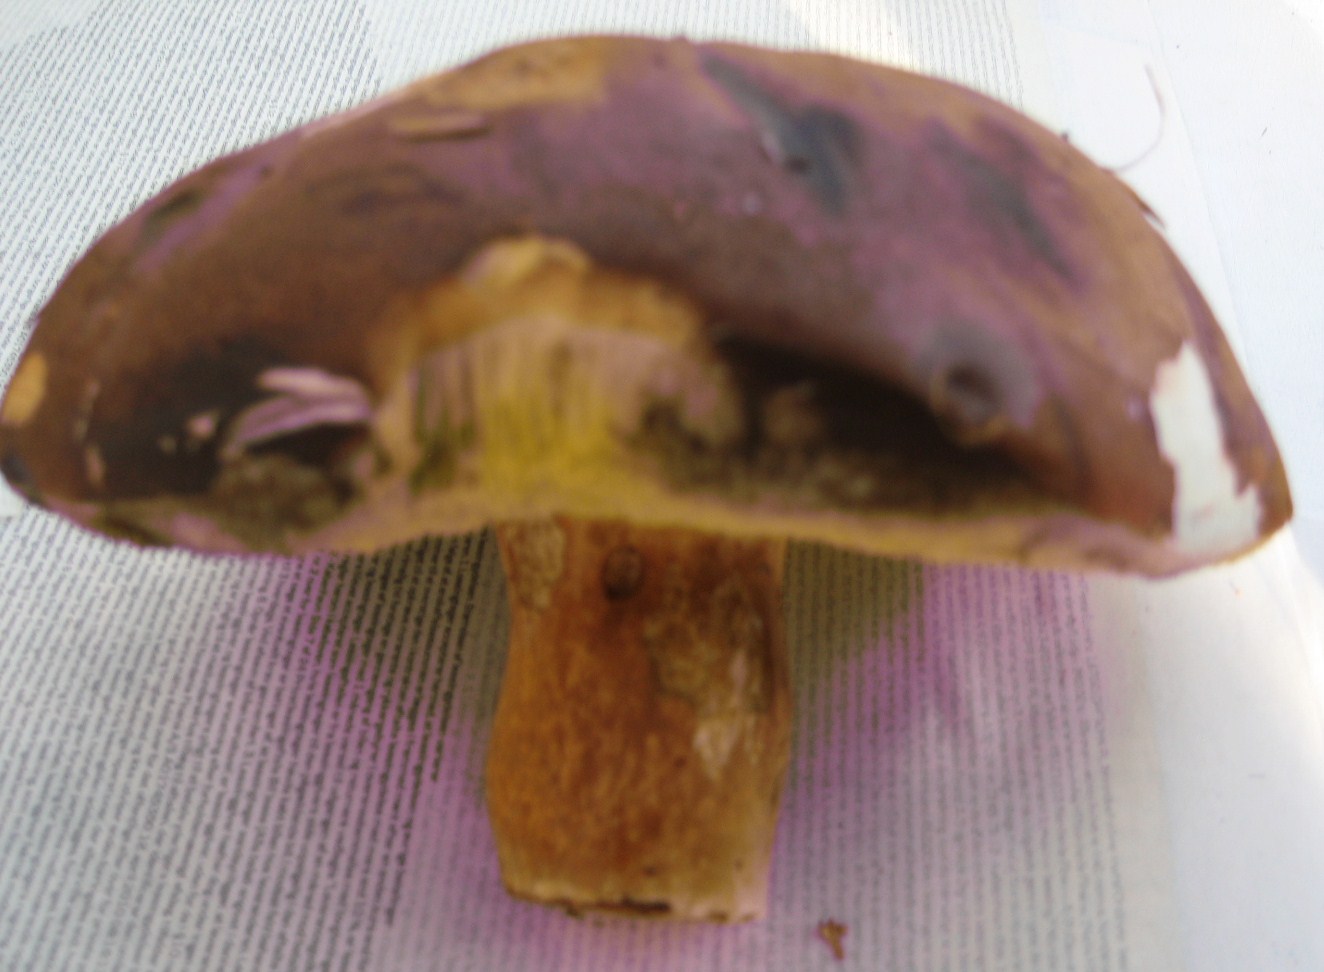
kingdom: Fungi
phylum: Basidiomycota
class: Agaricomycetes
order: Boletales
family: Boletaceae
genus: Imleria
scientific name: Imleria badia
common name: brunstokket rørhat
